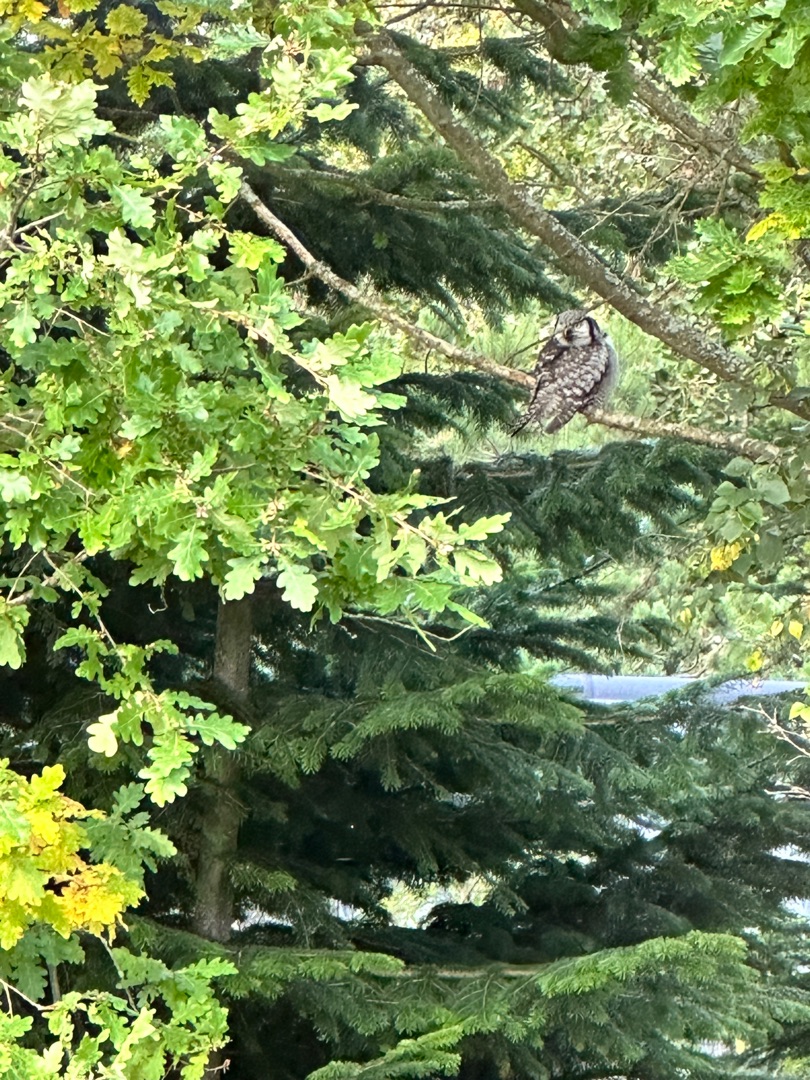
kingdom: Animalia
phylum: Chordata
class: Aves
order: Strigiformes
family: Strigidae
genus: Surnia
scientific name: Surnia ulula
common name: Høgeugle
